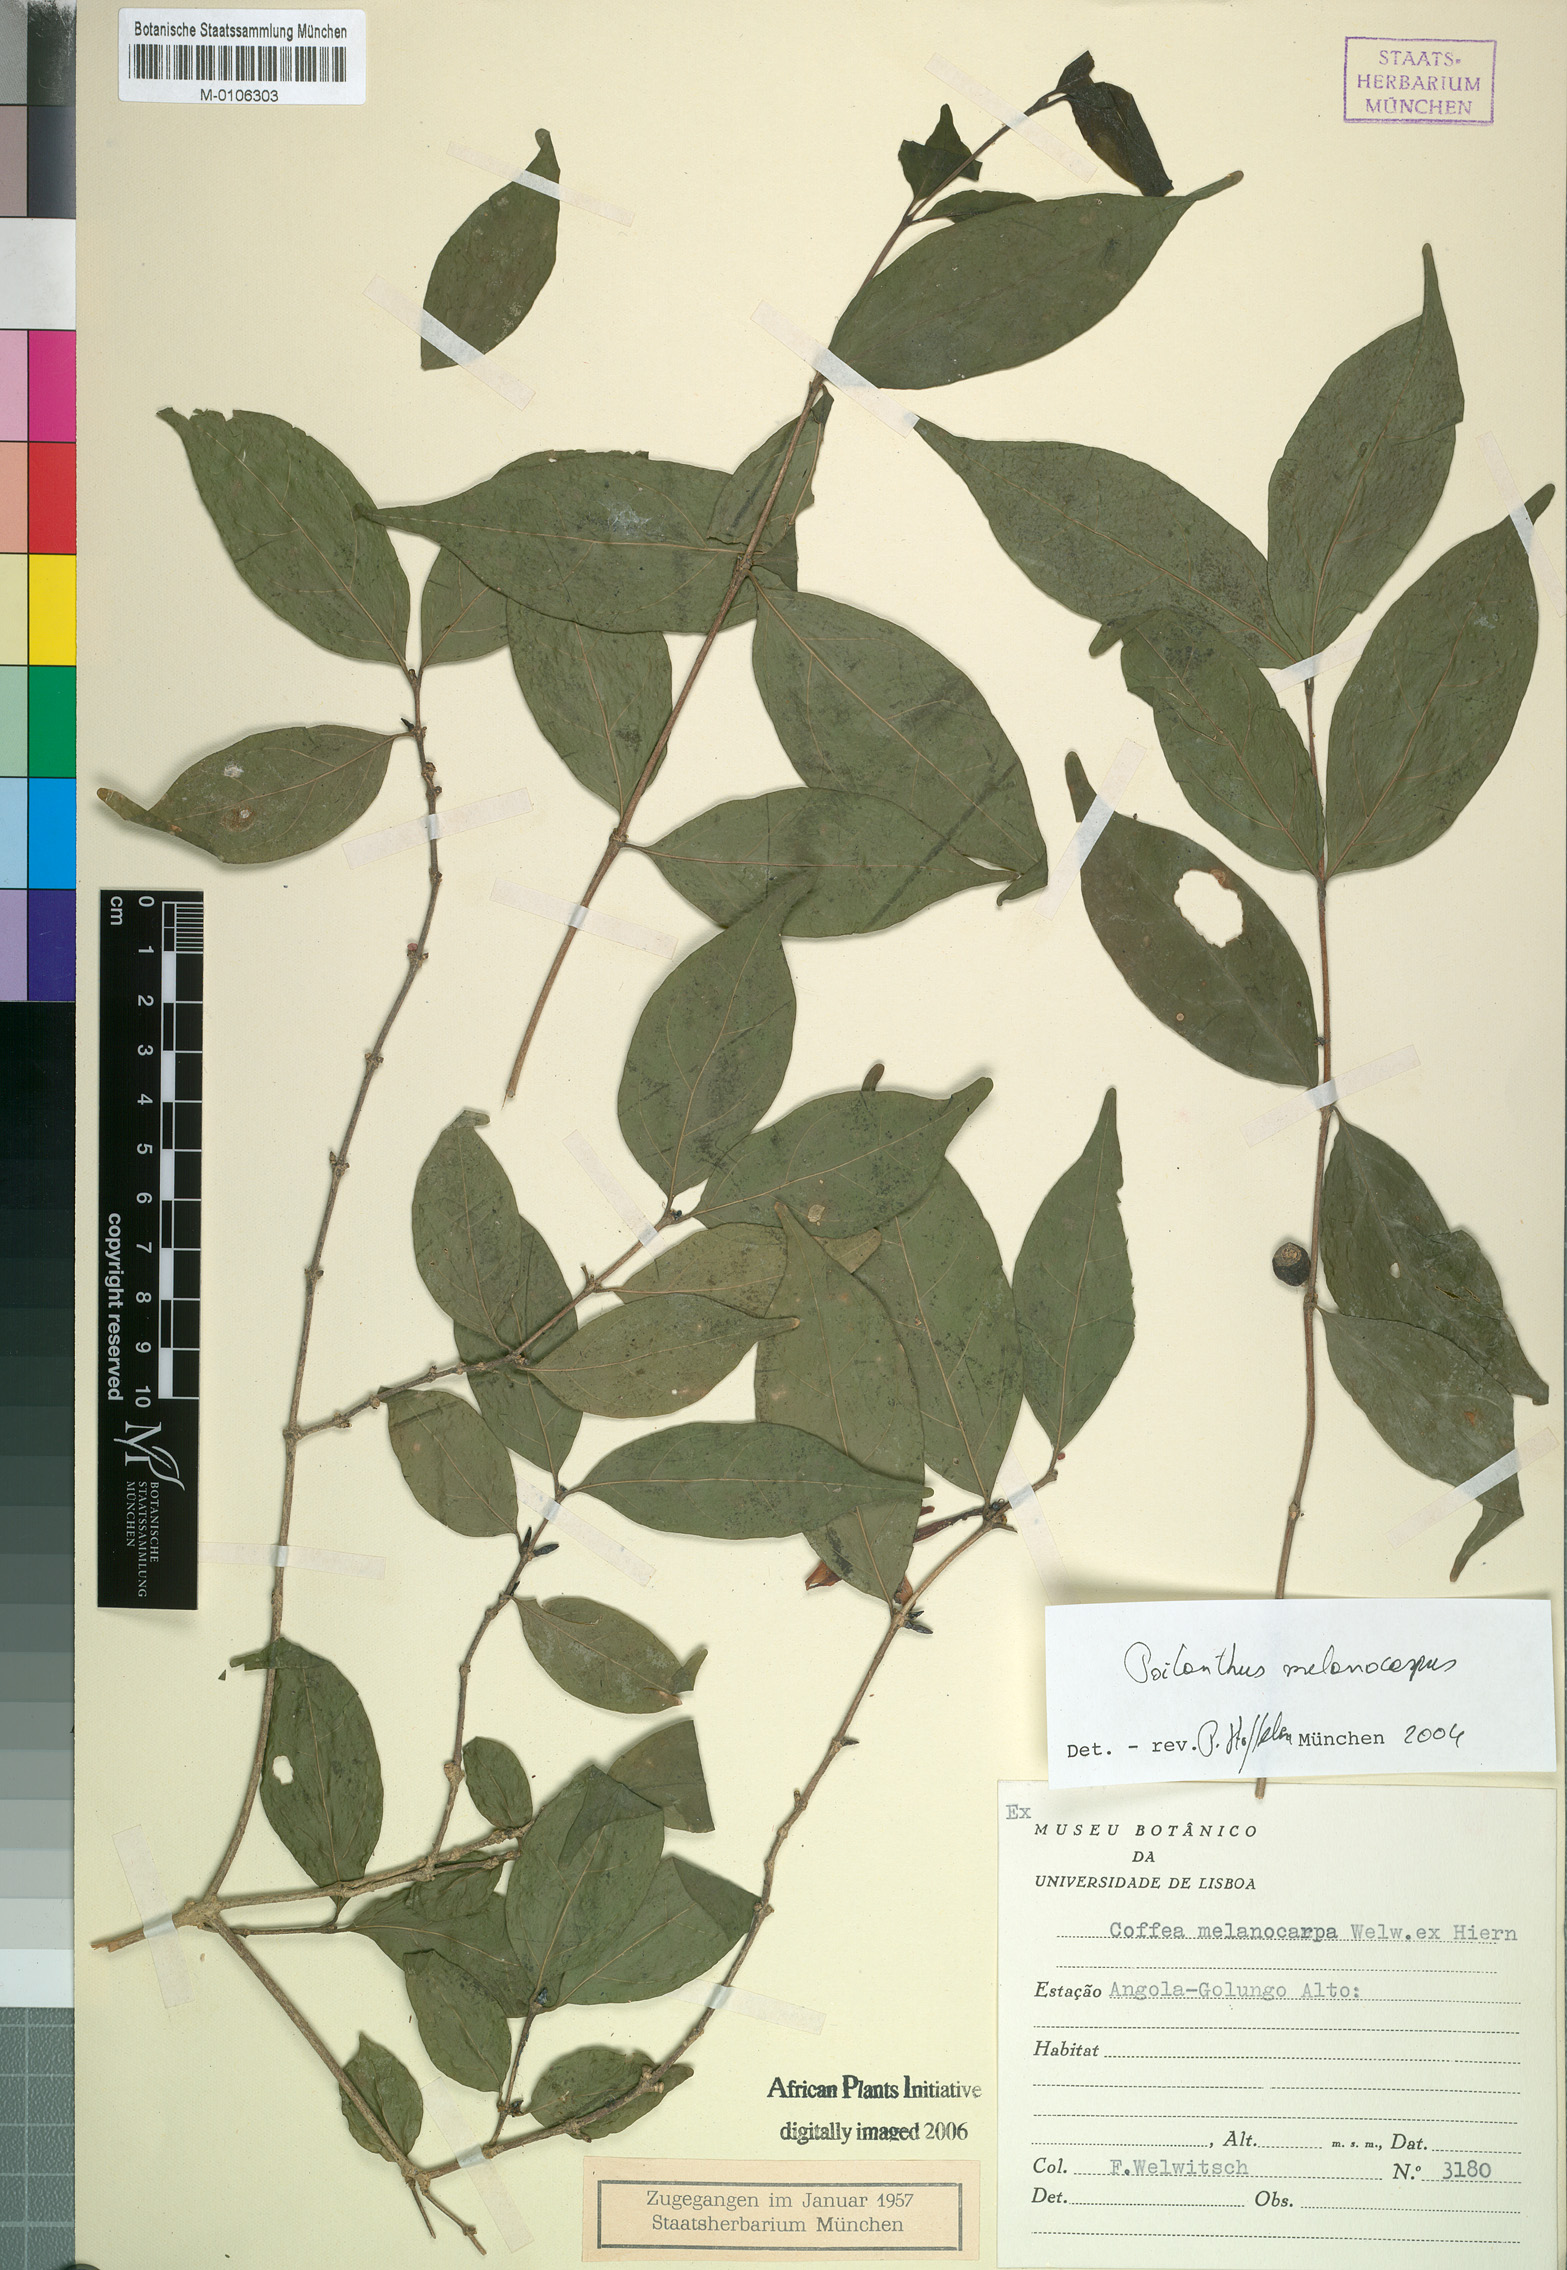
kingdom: Plantae
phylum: Tracheophyta
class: Magnoliopsida
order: Gentianales
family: Rubiaceae
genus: Coffea
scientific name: Coffea melanocarpa
